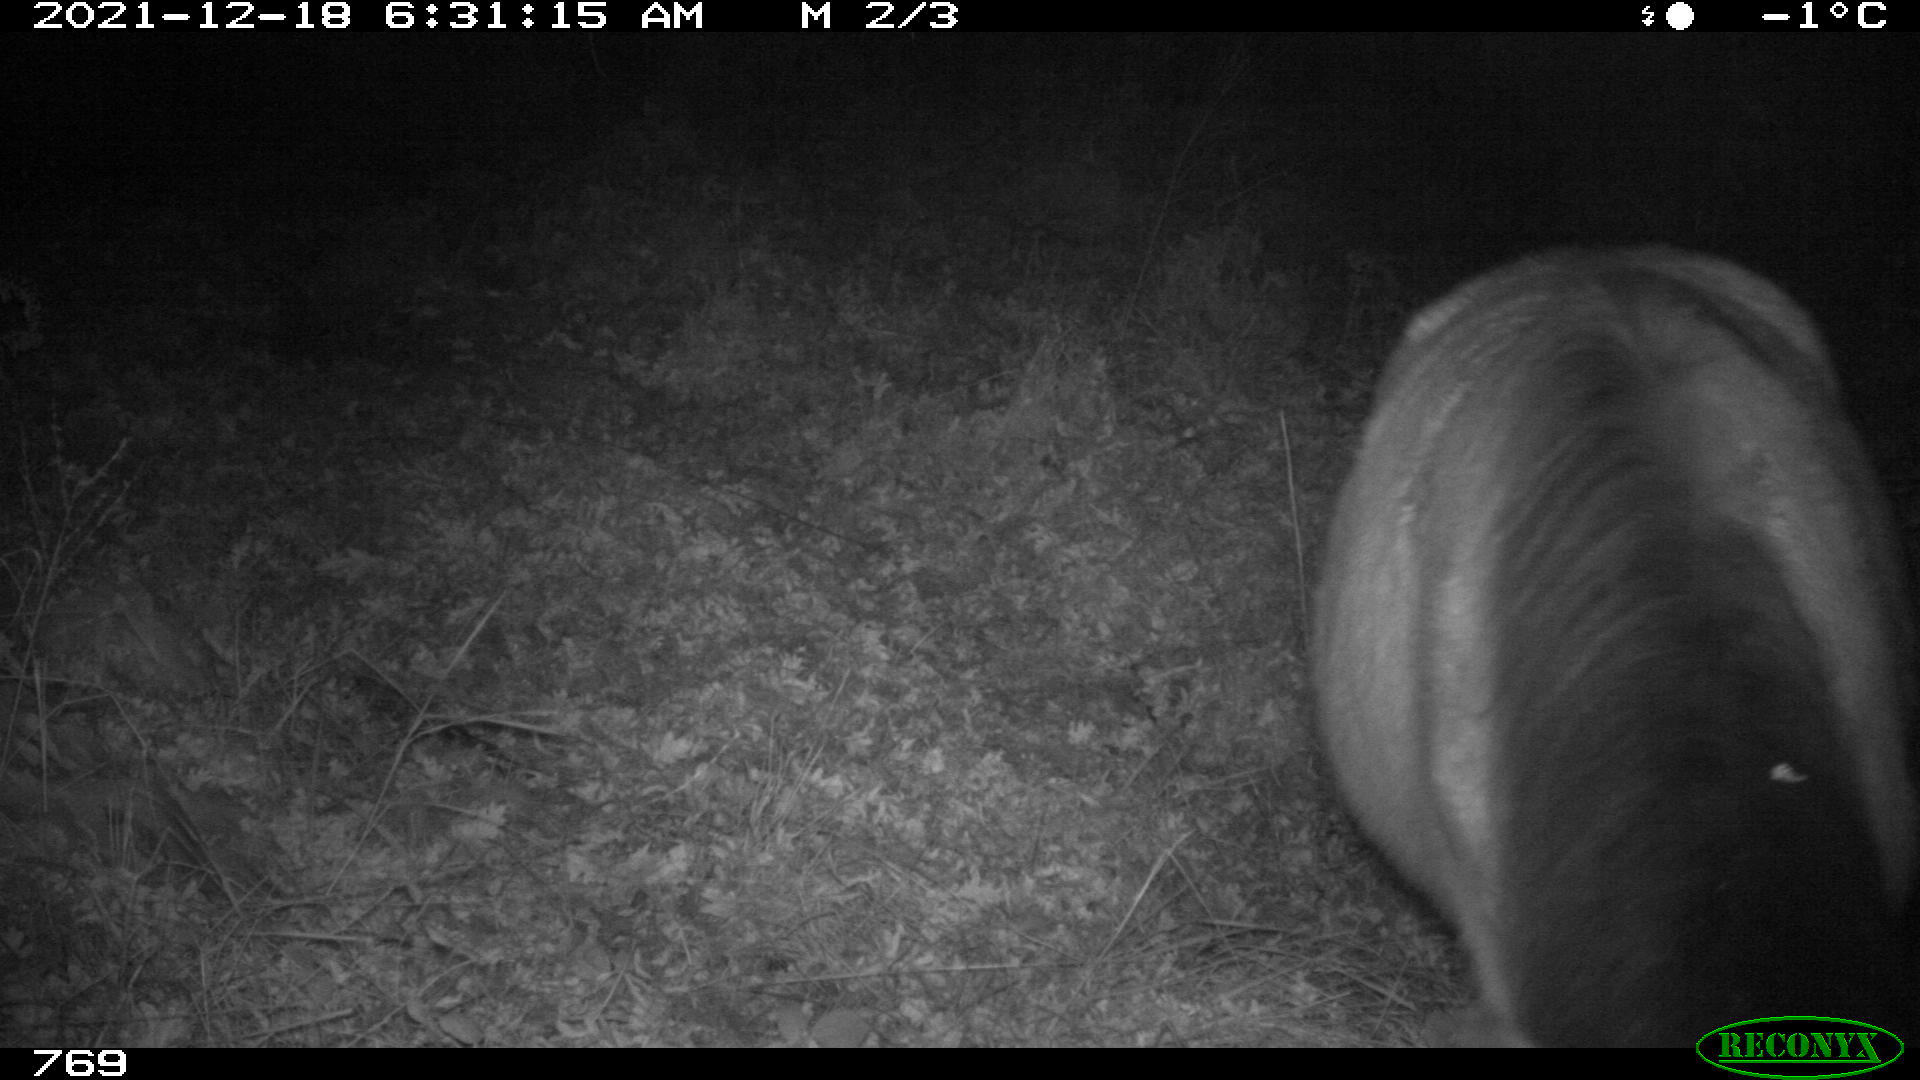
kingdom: Animalia
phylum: Chordata
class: Mammalia
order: Perissodactyla
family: Equidae
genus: Equus
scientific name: Equus caballus
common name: Horse
